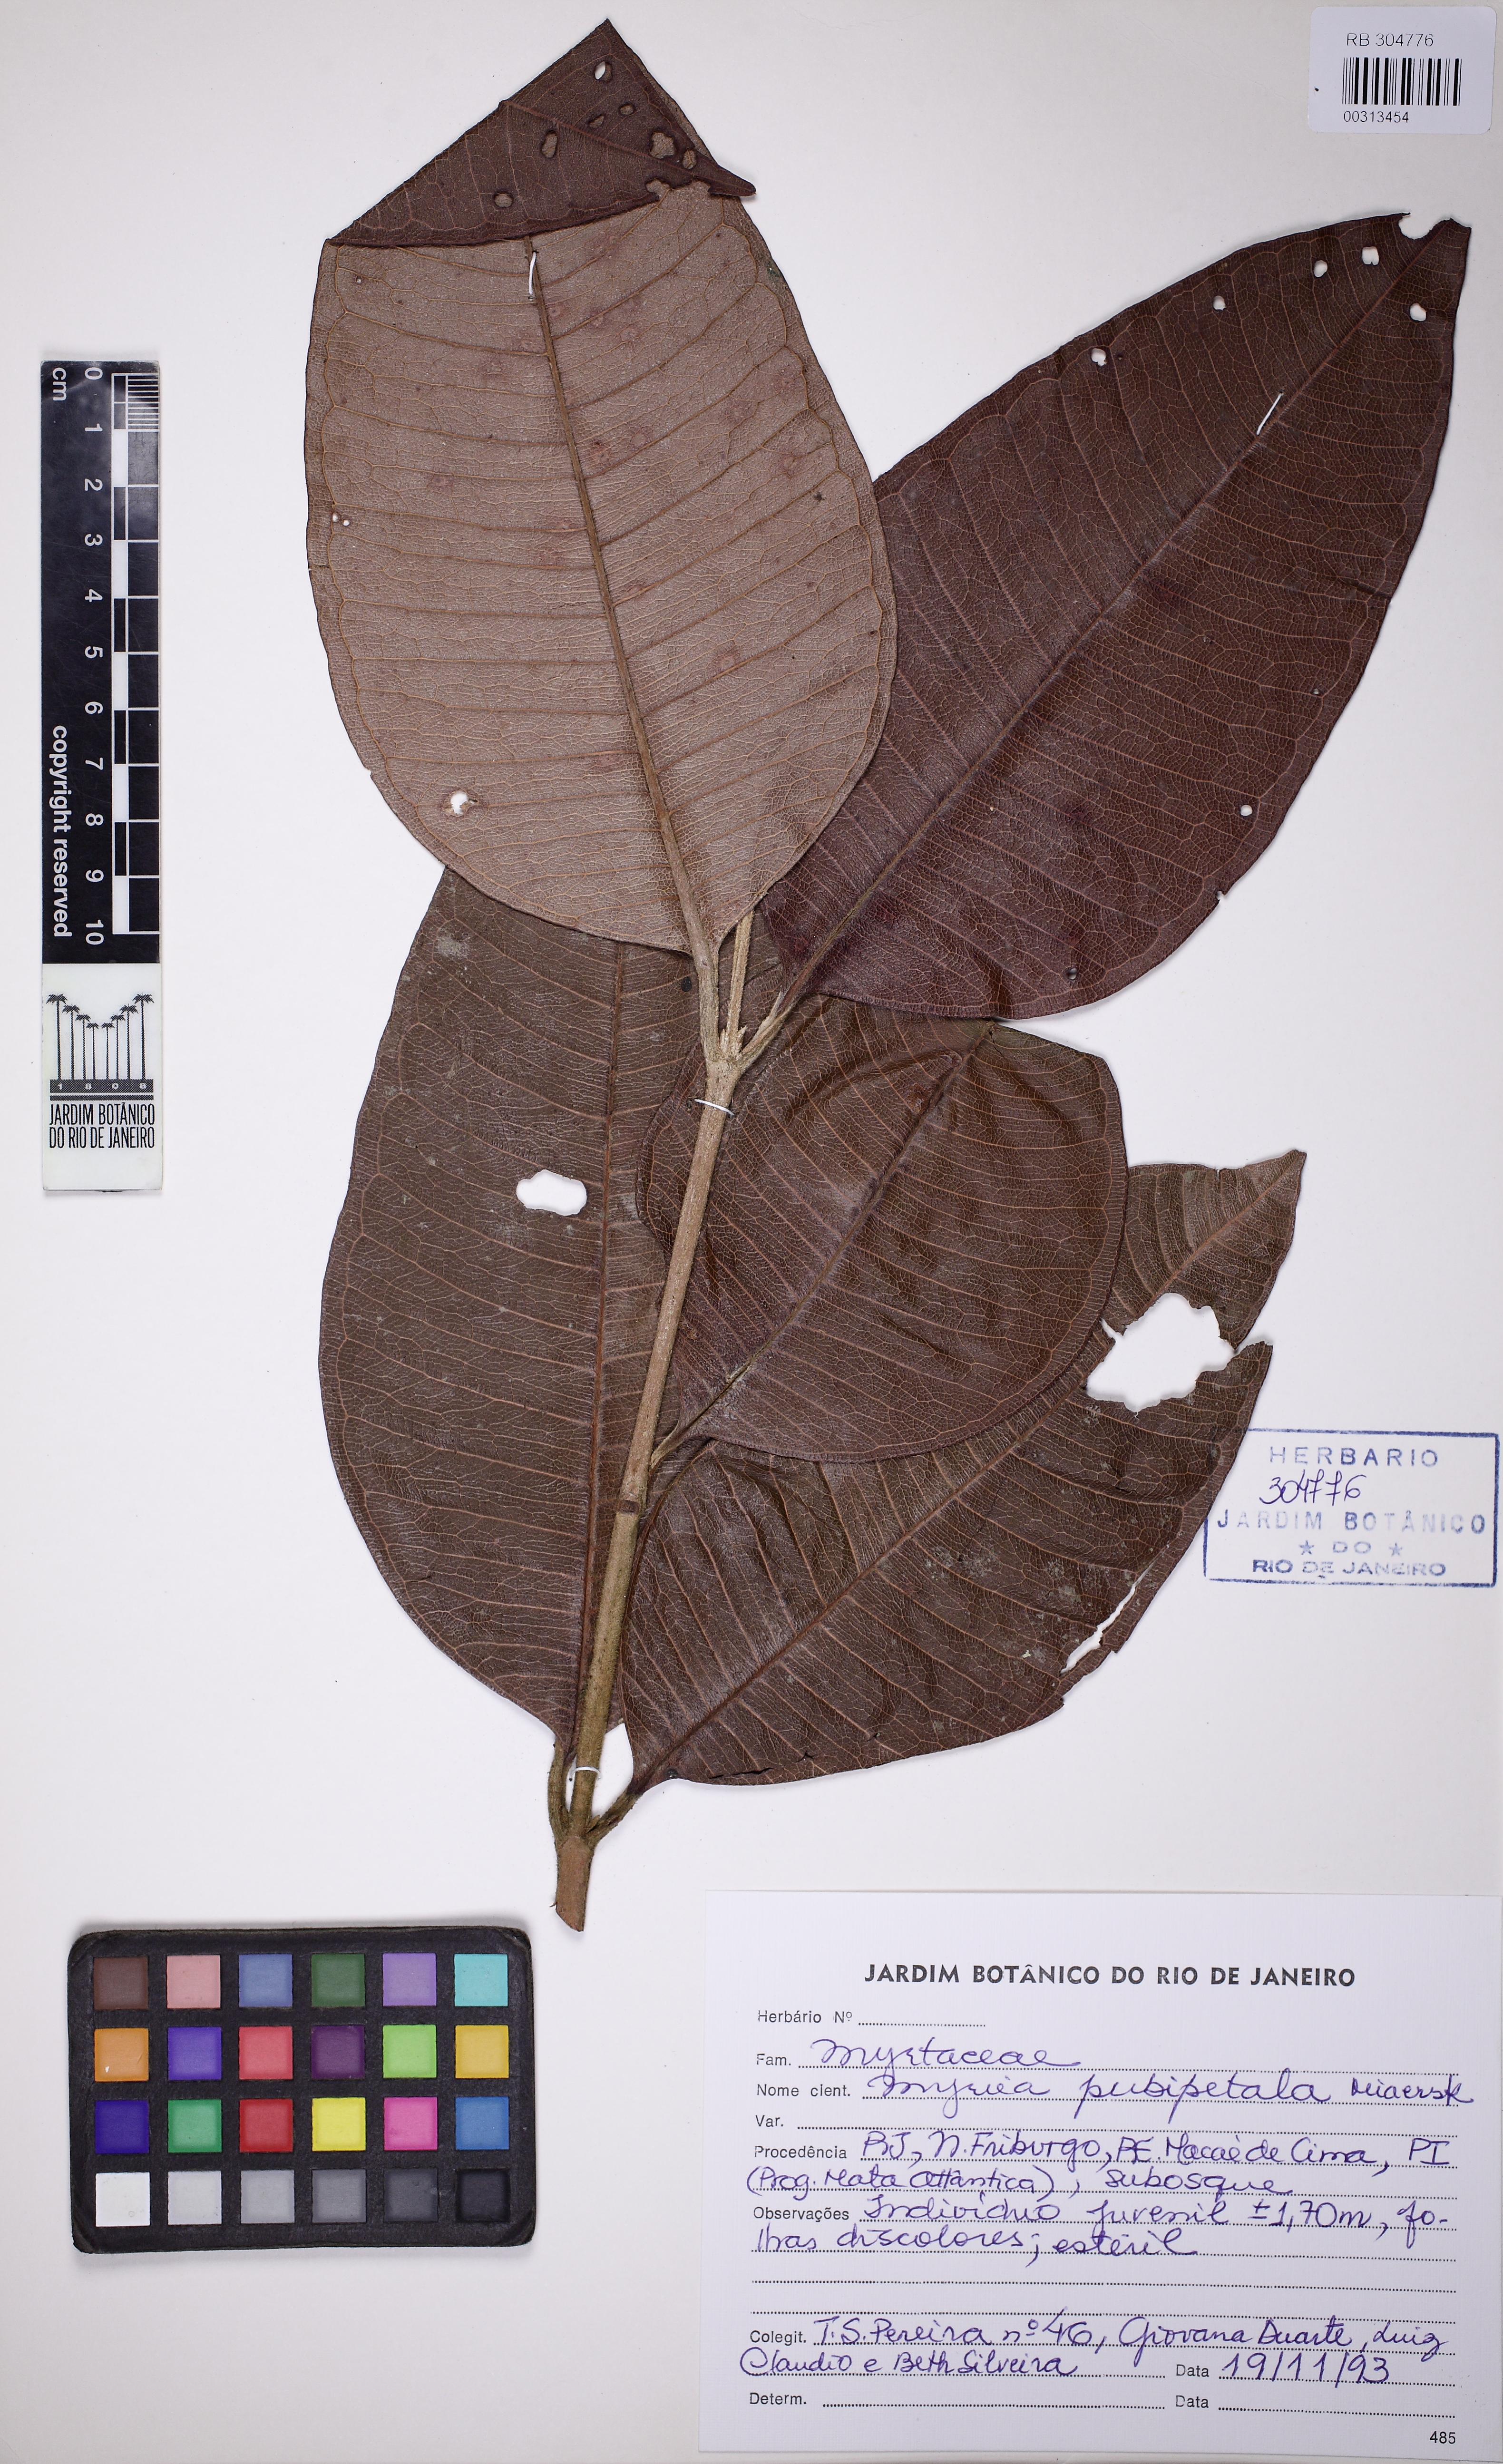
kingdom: Plantae
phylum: Tracheophyta
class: Magnoliopsida
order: Myrtales
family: Myrtaceae
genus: Myrcia
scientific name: Myrcia pubipetala
